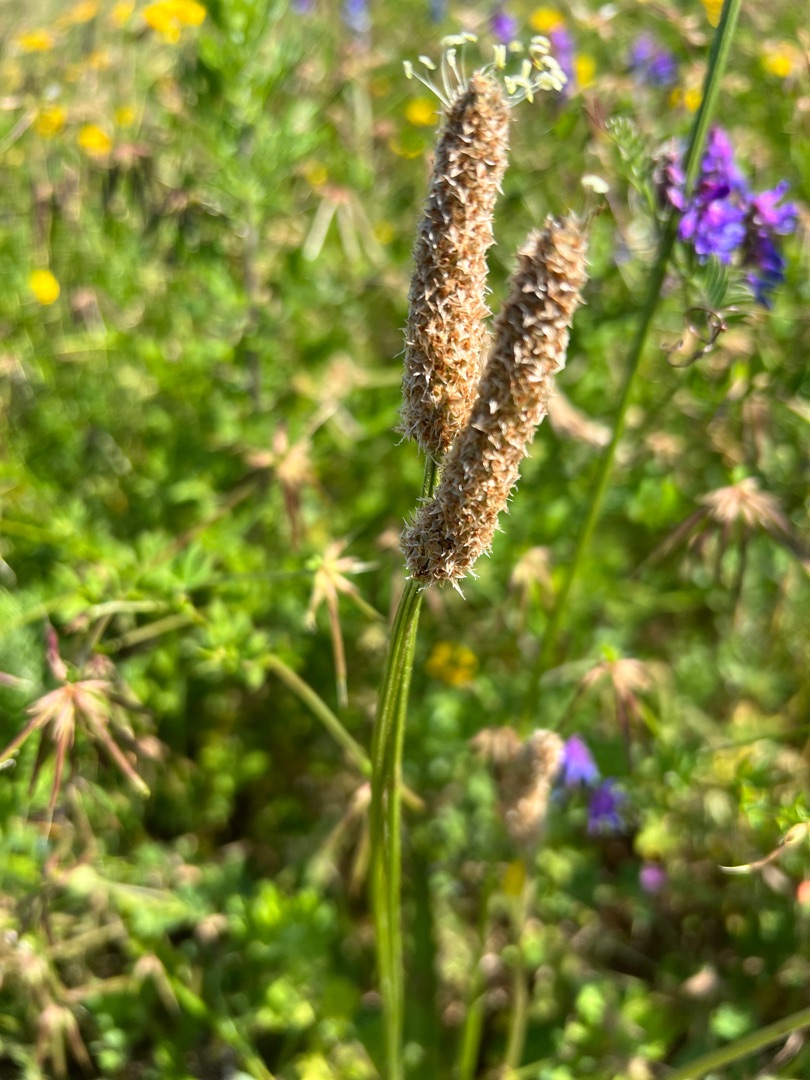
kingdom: Plantae
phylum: Tracheophyta
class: Magnoliopsida
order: Lamiales
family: Plantaginaceae
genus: Plantago
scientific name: Plantago lanceolata
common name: Lancet-vejbred
